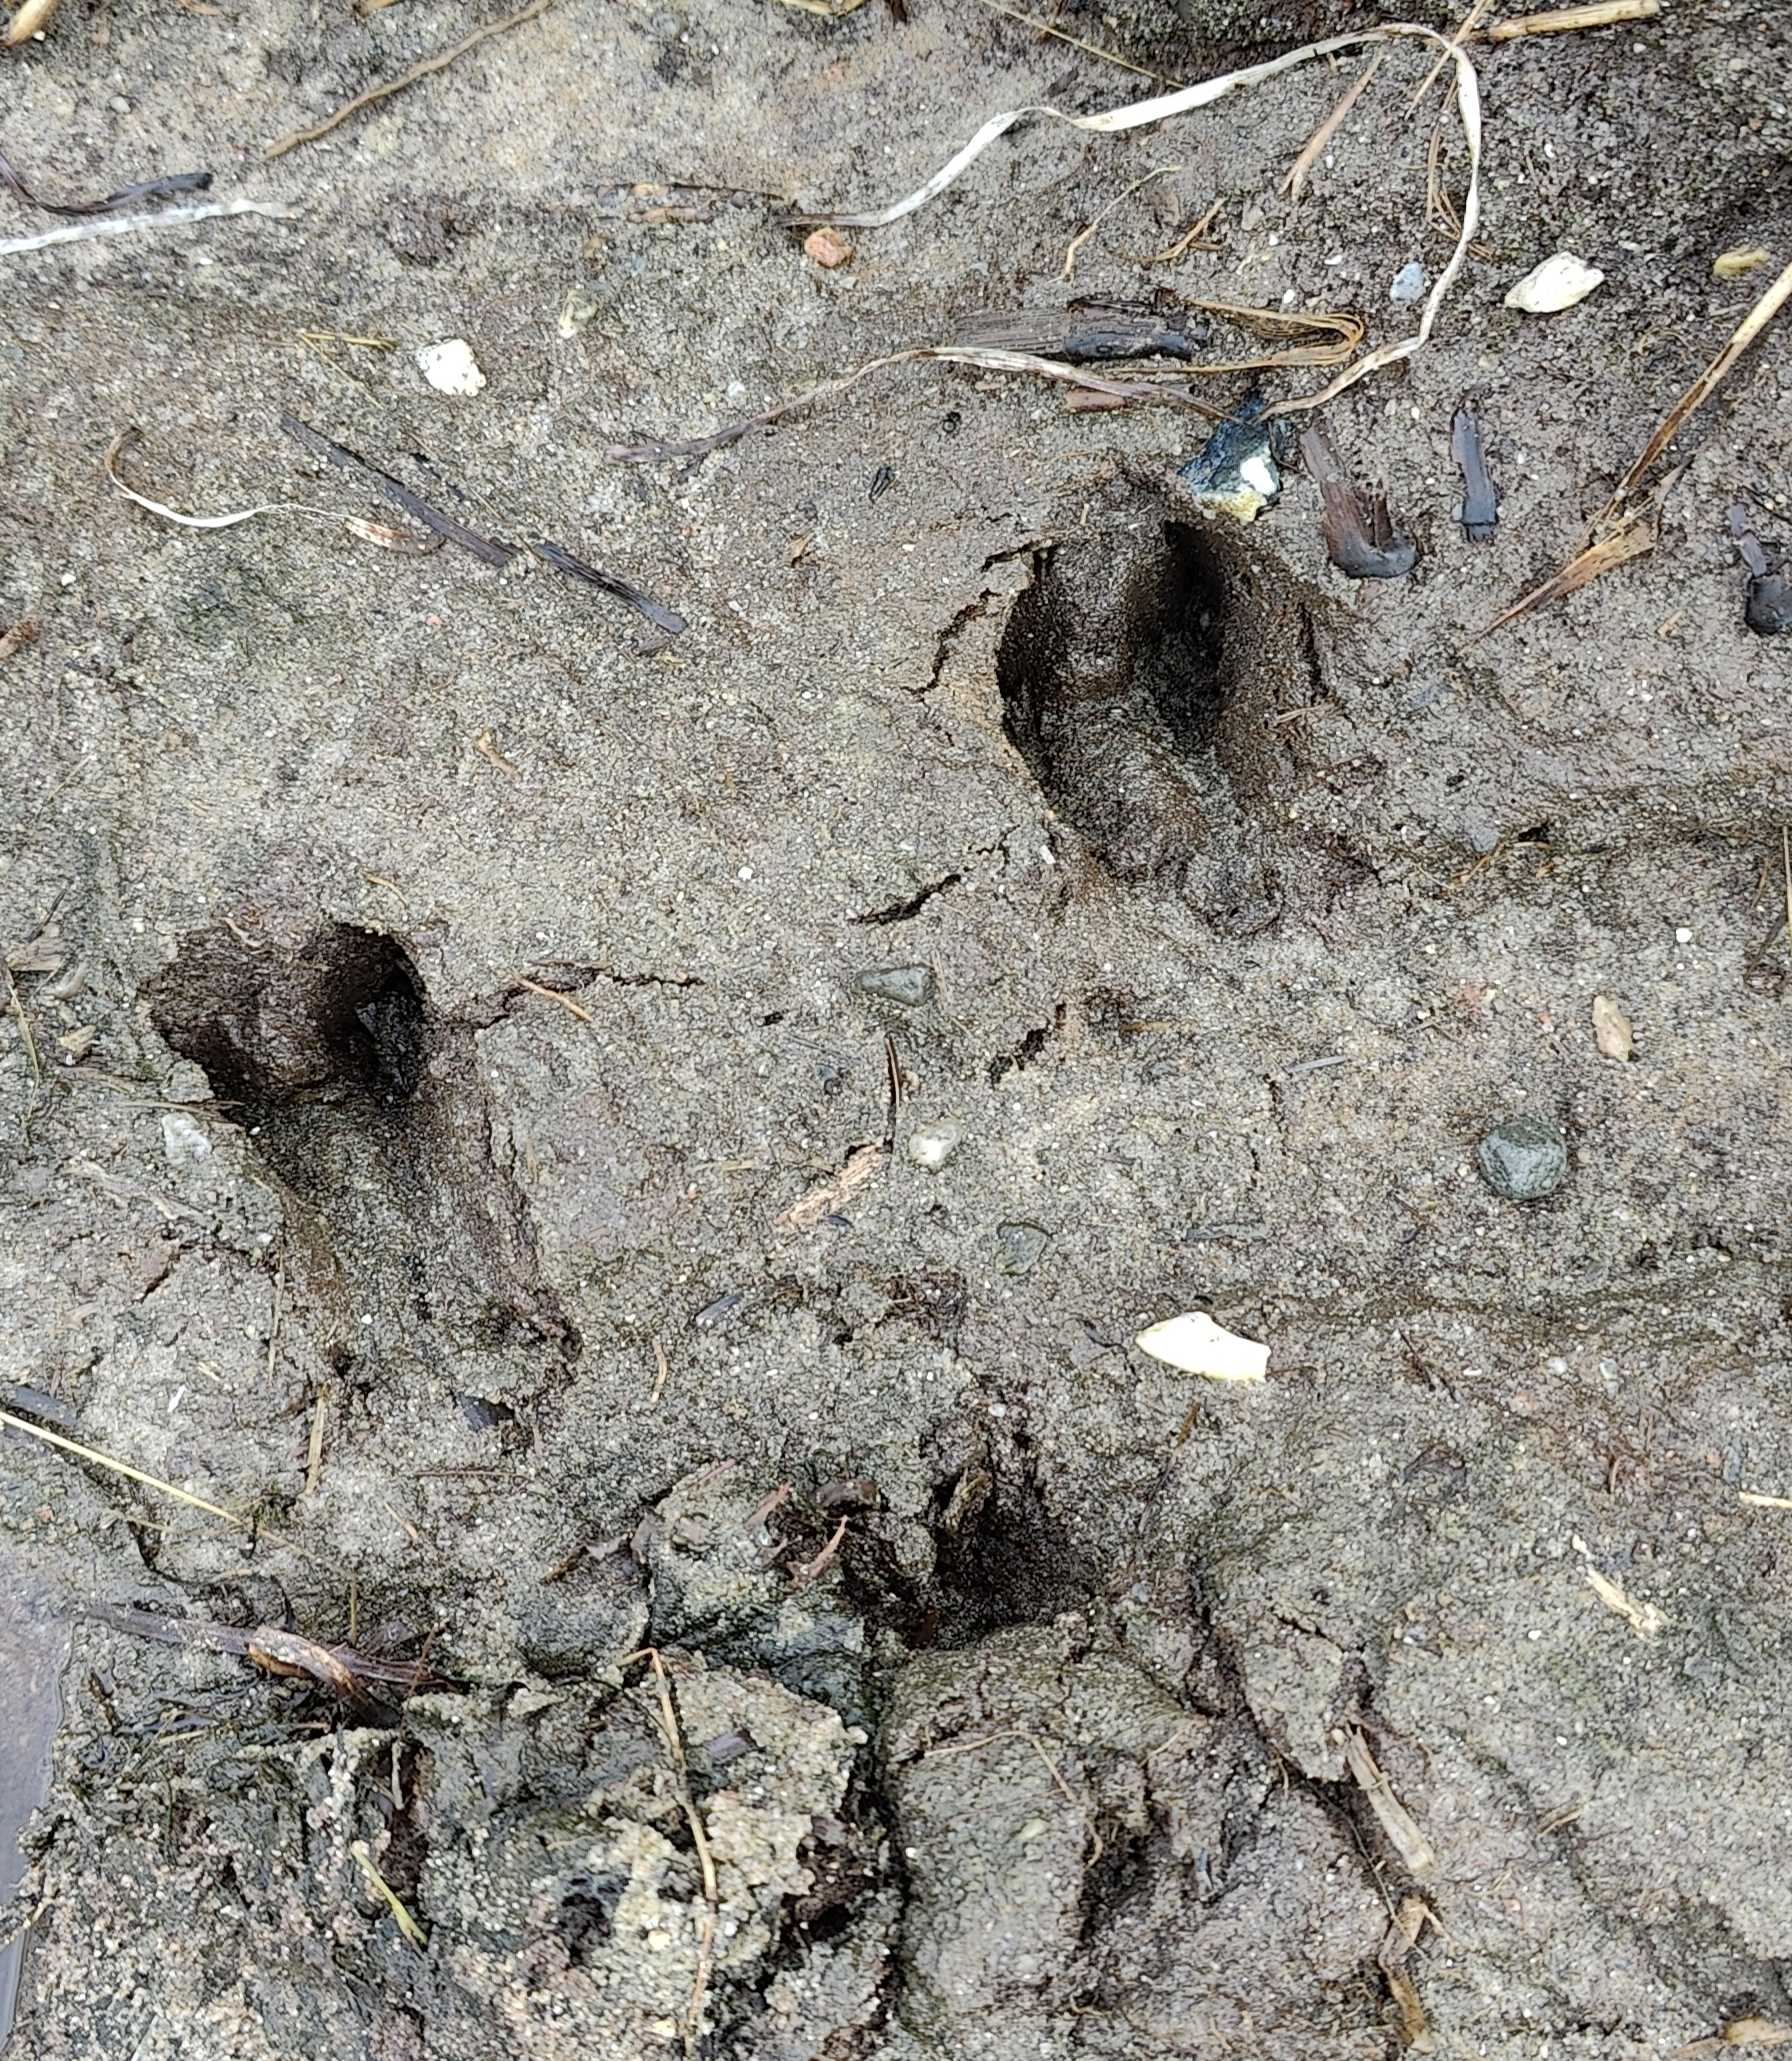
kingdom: Animalia
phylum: Chordata
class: Mammalia
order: Artiodactyla
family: Cervidae
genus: Capreolus
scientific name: Capreolus capreolus
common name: Rådyr
